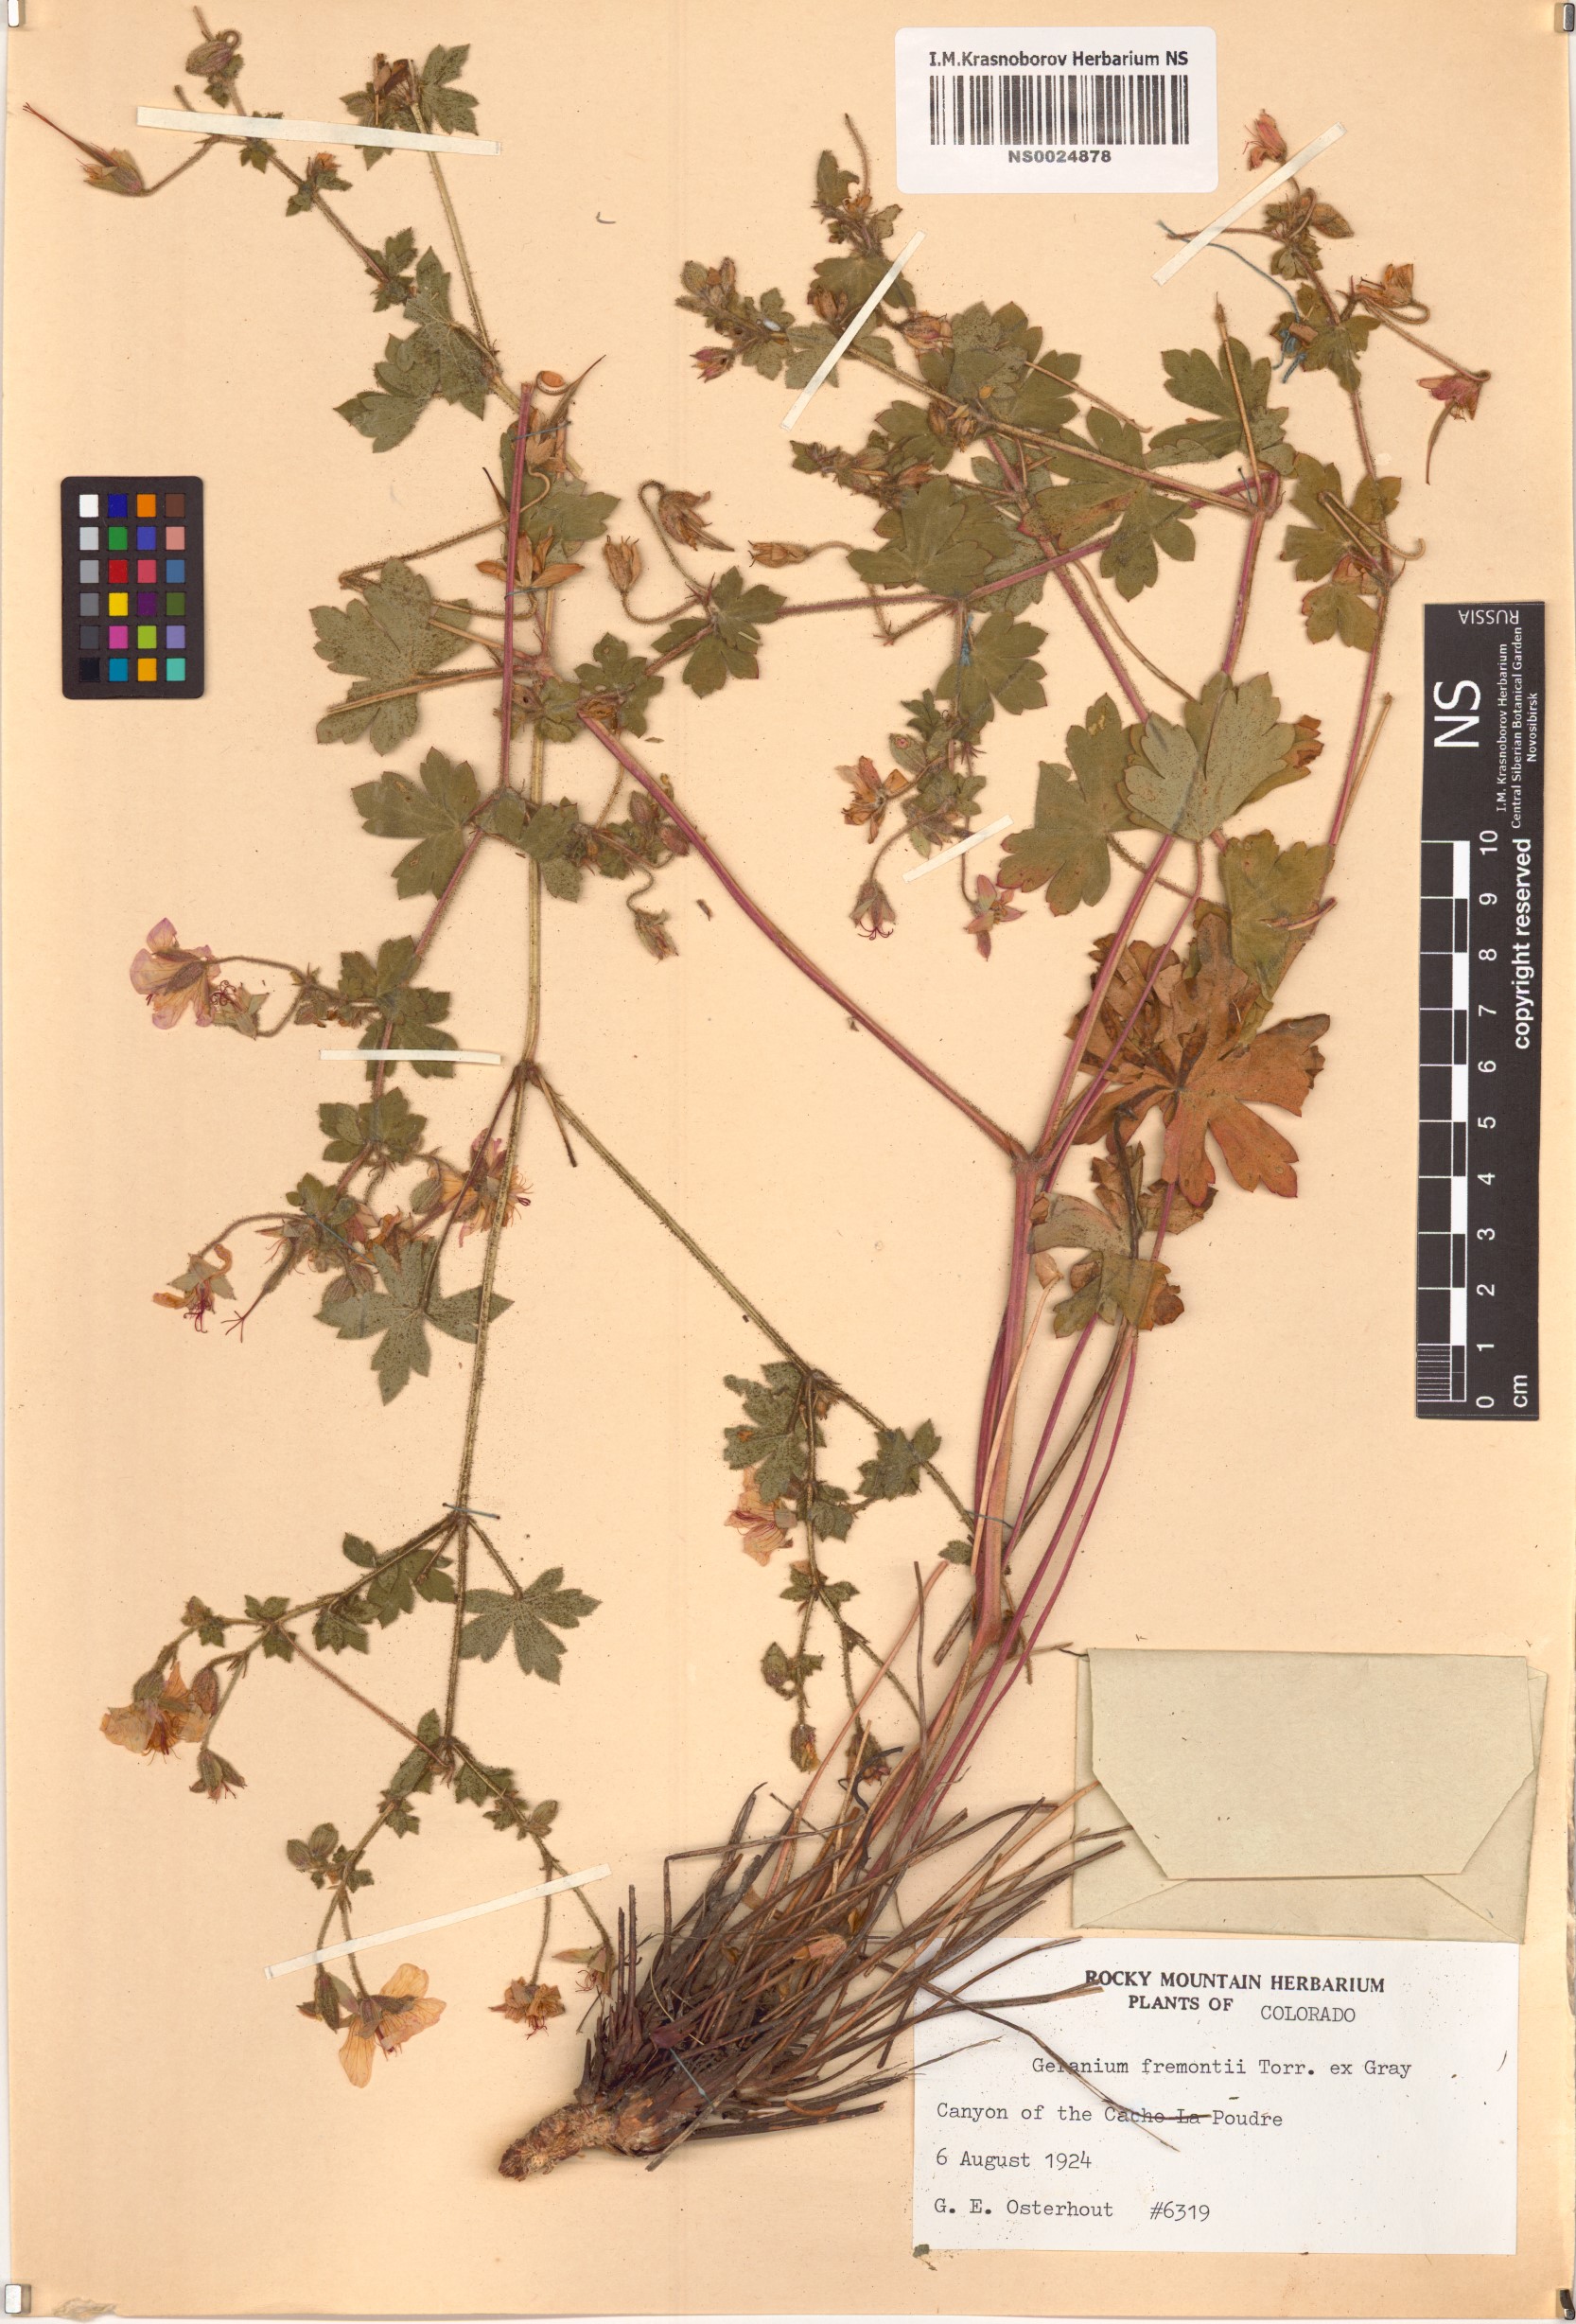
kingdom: Plantae
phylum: Tracheophyta
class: Magnoliopsida
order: Geraniales
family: Geraniaceae
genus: Geranium
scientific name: Geranium caespitosum
